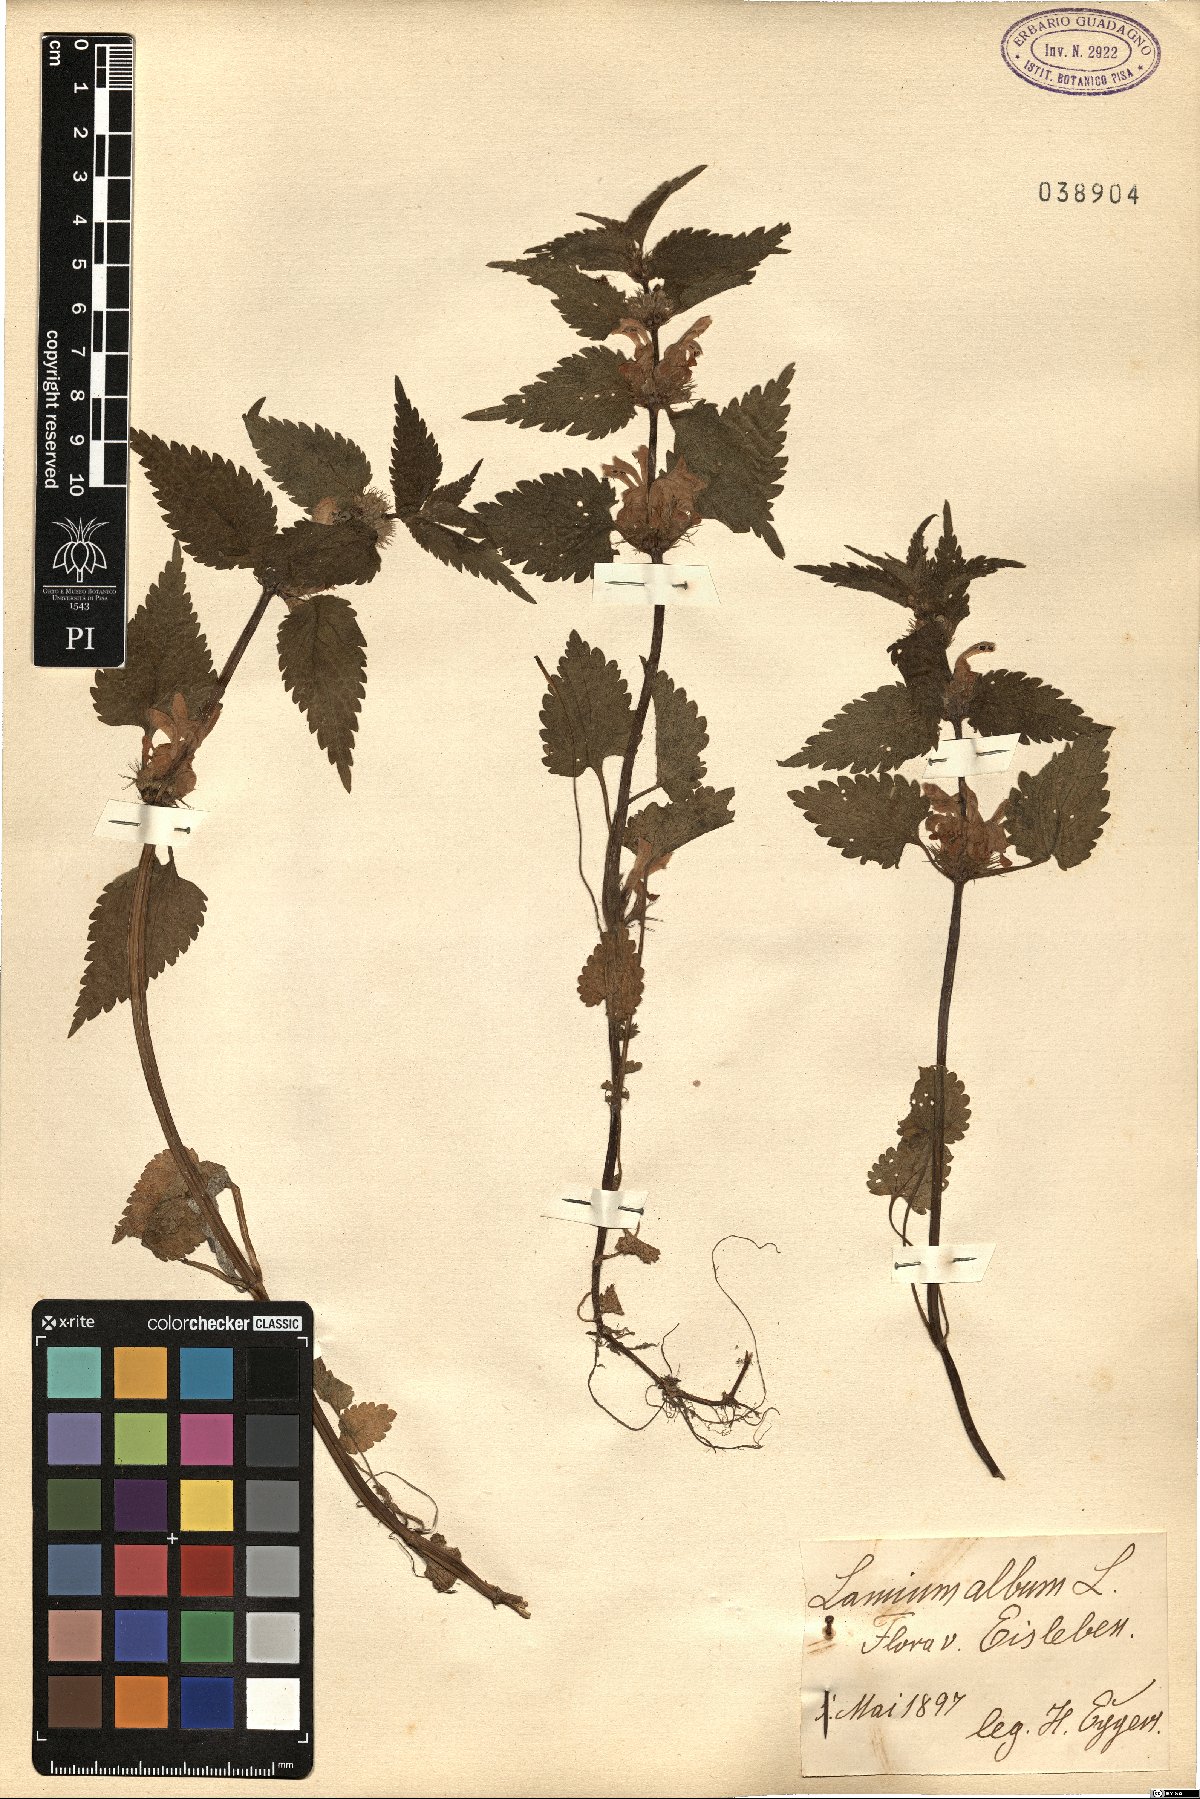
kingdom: Plantae
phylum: Tracheophyta
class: Magnoliopsida
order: Lamiales
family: Lamiaceae
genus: Lamium
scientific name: Lamium album
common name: White dead-nettle
